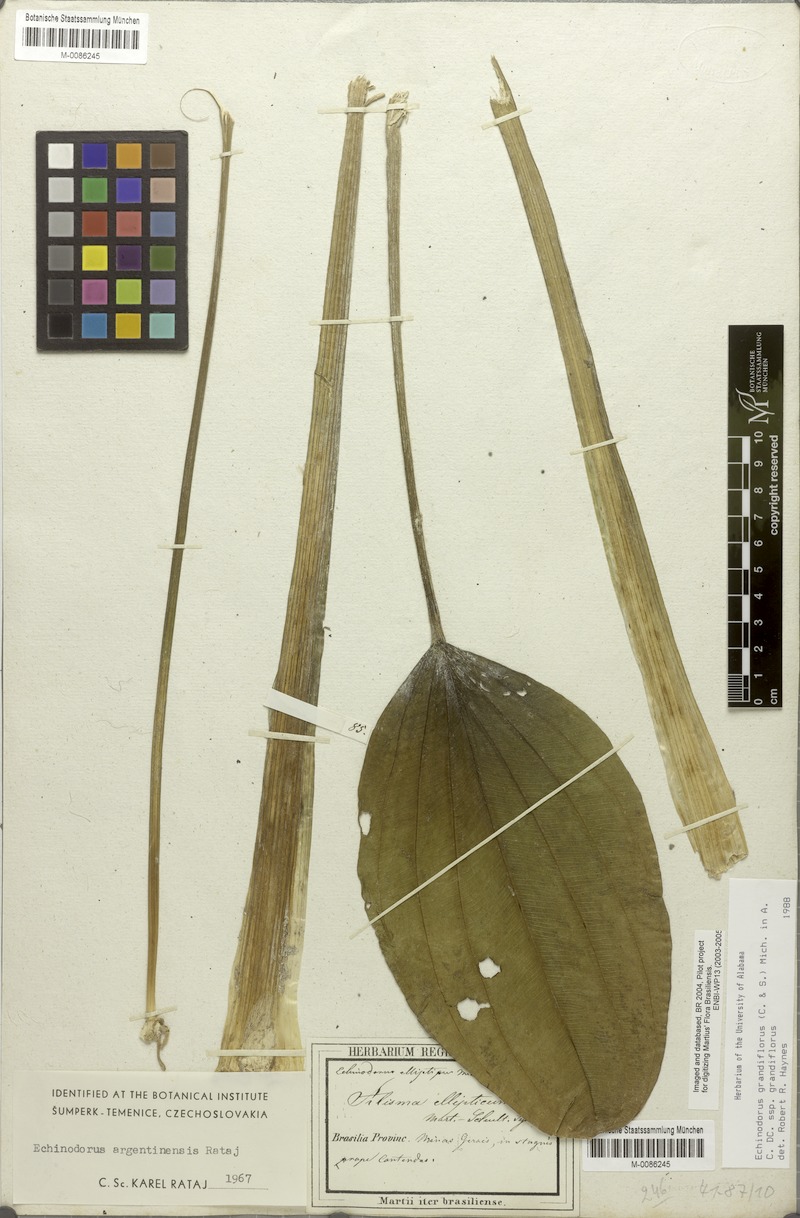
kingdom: Plantae
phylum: Tracheophyta
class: Liliopsida
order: Alismatales
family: Alismataceae
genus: Aquarius
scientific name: Aquarius palifolius
